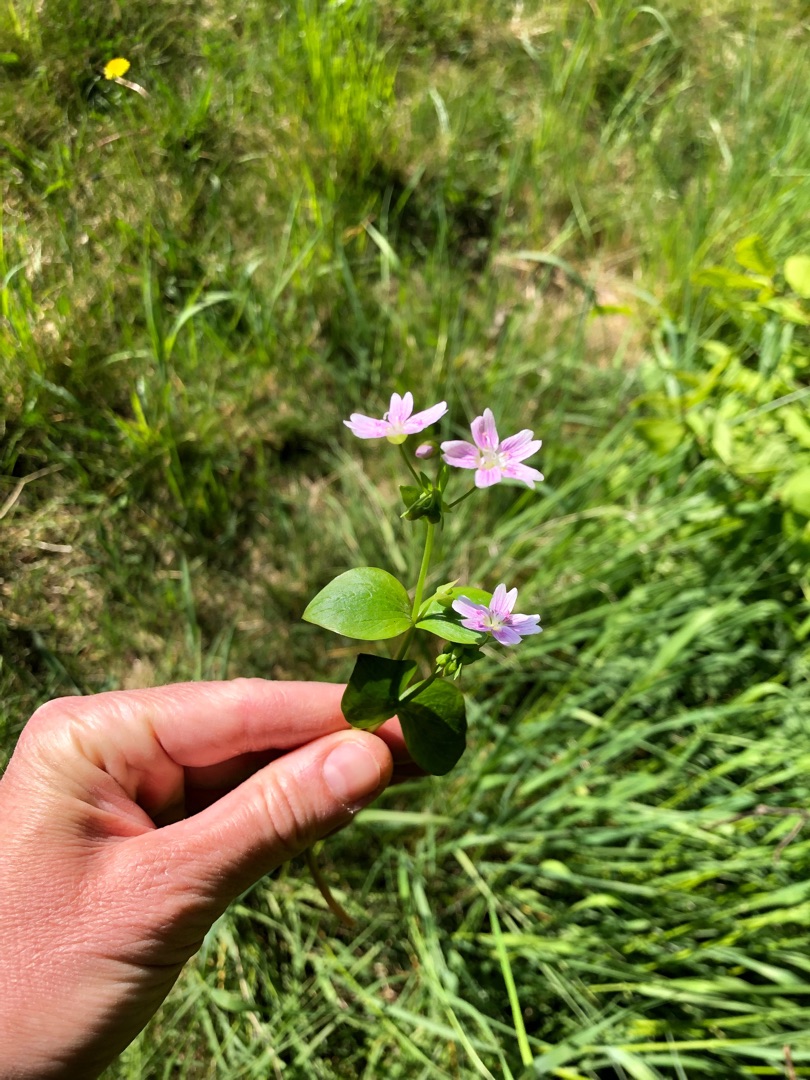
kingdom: Plantae
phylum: Tracheophyta
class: Magnoliopsida
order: Caryophyllales
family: Montiaceae
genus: Claytonia
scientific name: Claytonia sibirica
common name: Sibirisk vinterportulak
